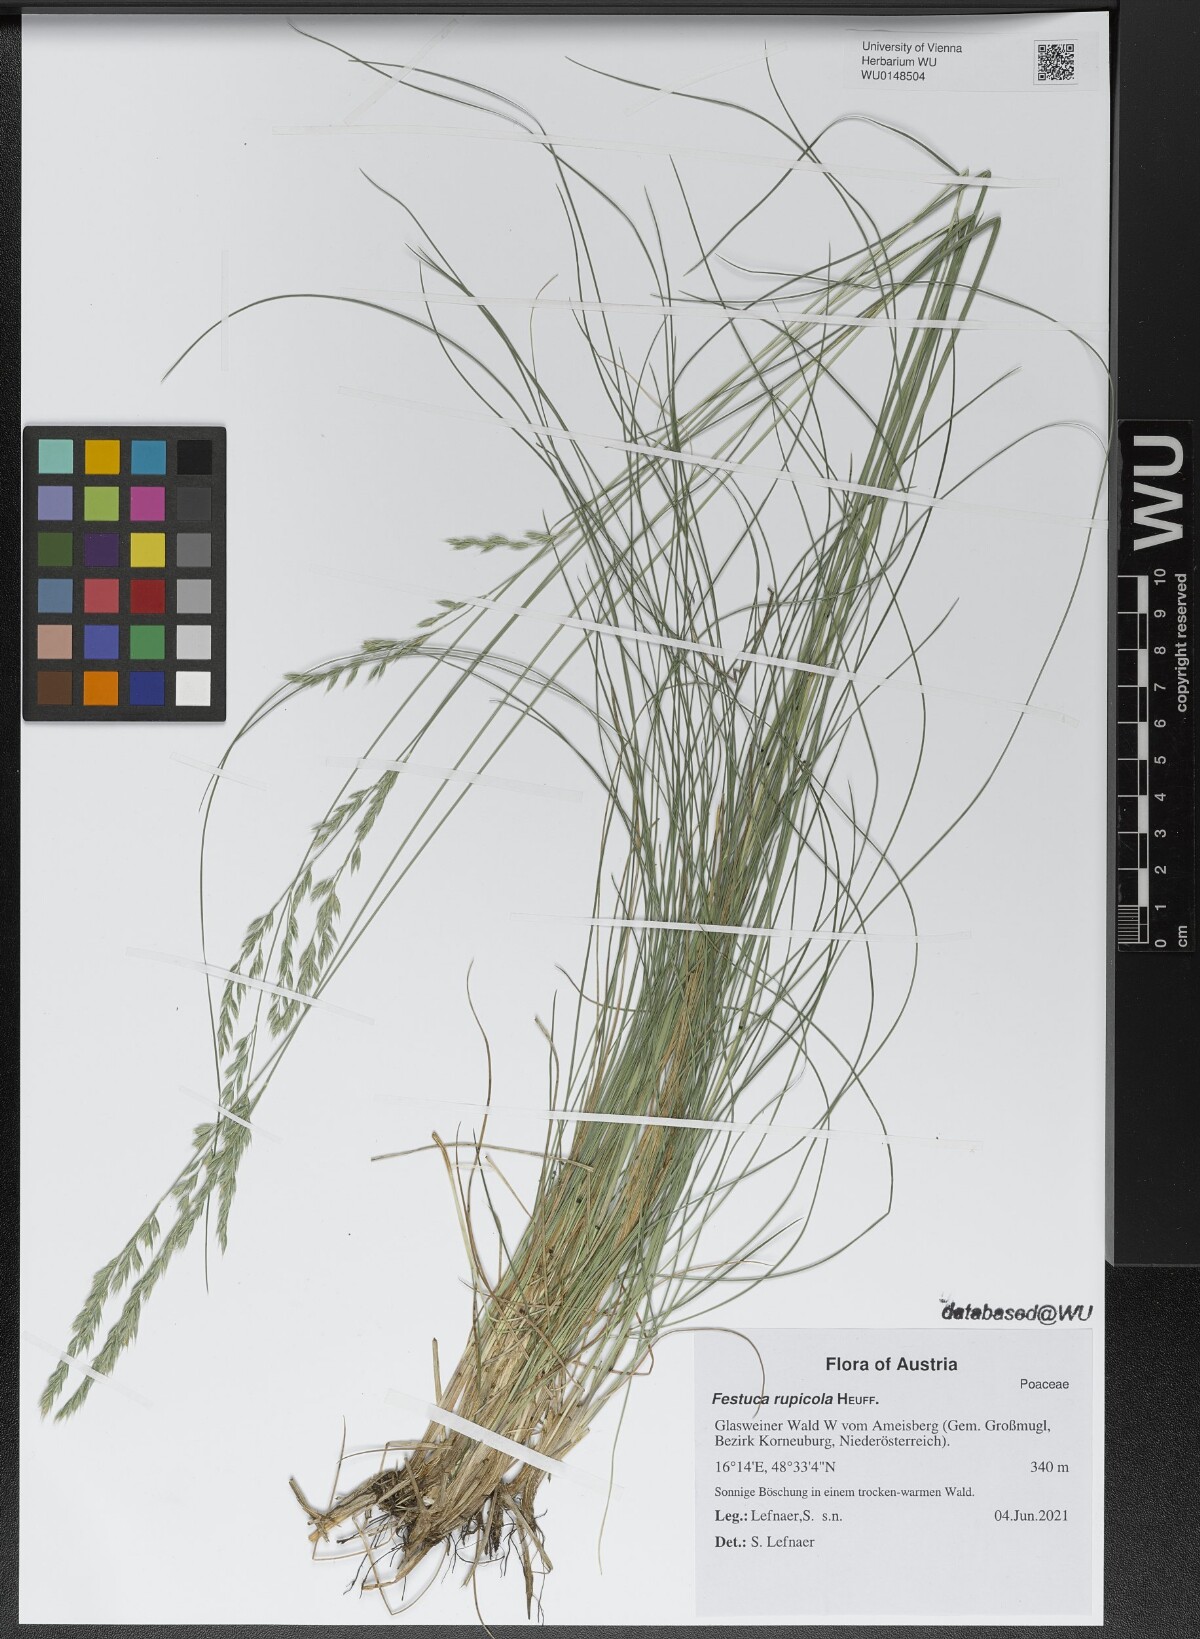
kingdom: Plantae
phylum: Tracheophyta
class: Liliopsida
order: Poales
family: Poaceae
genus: Festuca
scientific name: Festuca rupicola
